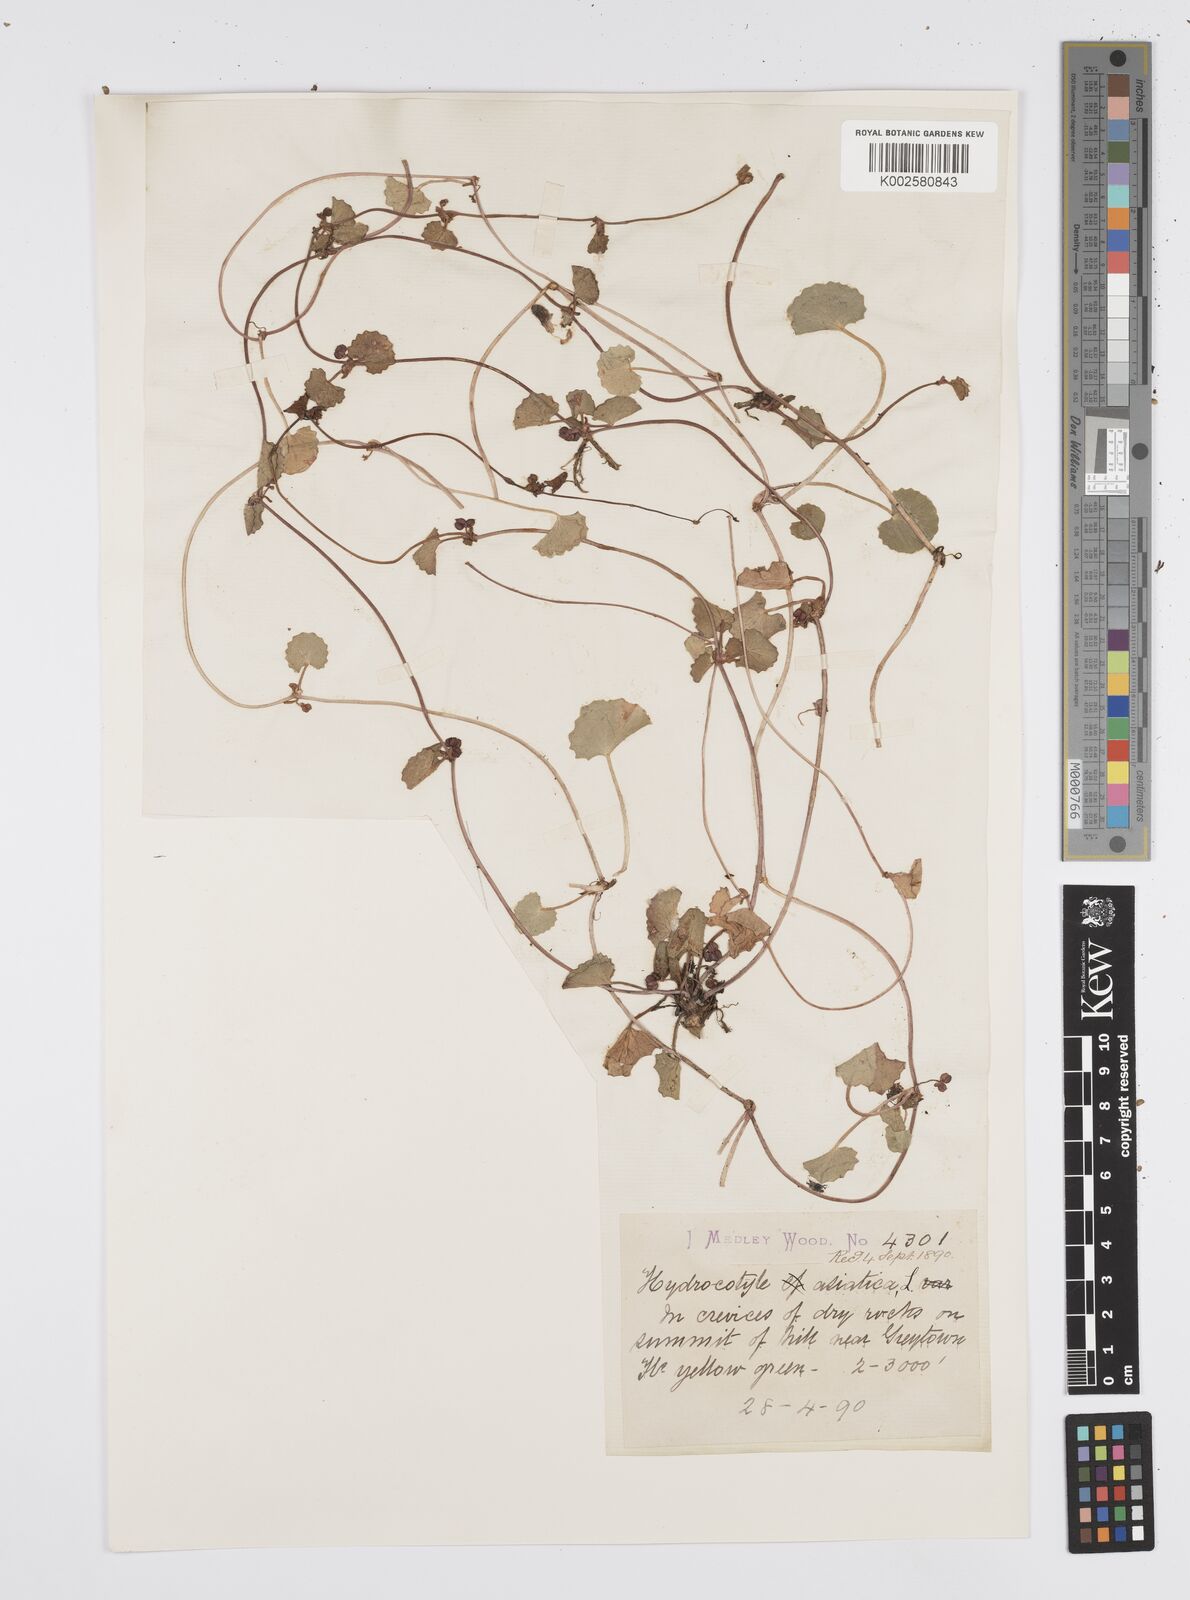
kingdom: Plantae
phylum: Tracheophyta
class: Magnoliopsida
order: Apiales
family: Apiaceae
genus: Centella
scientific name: Centella coriacea
